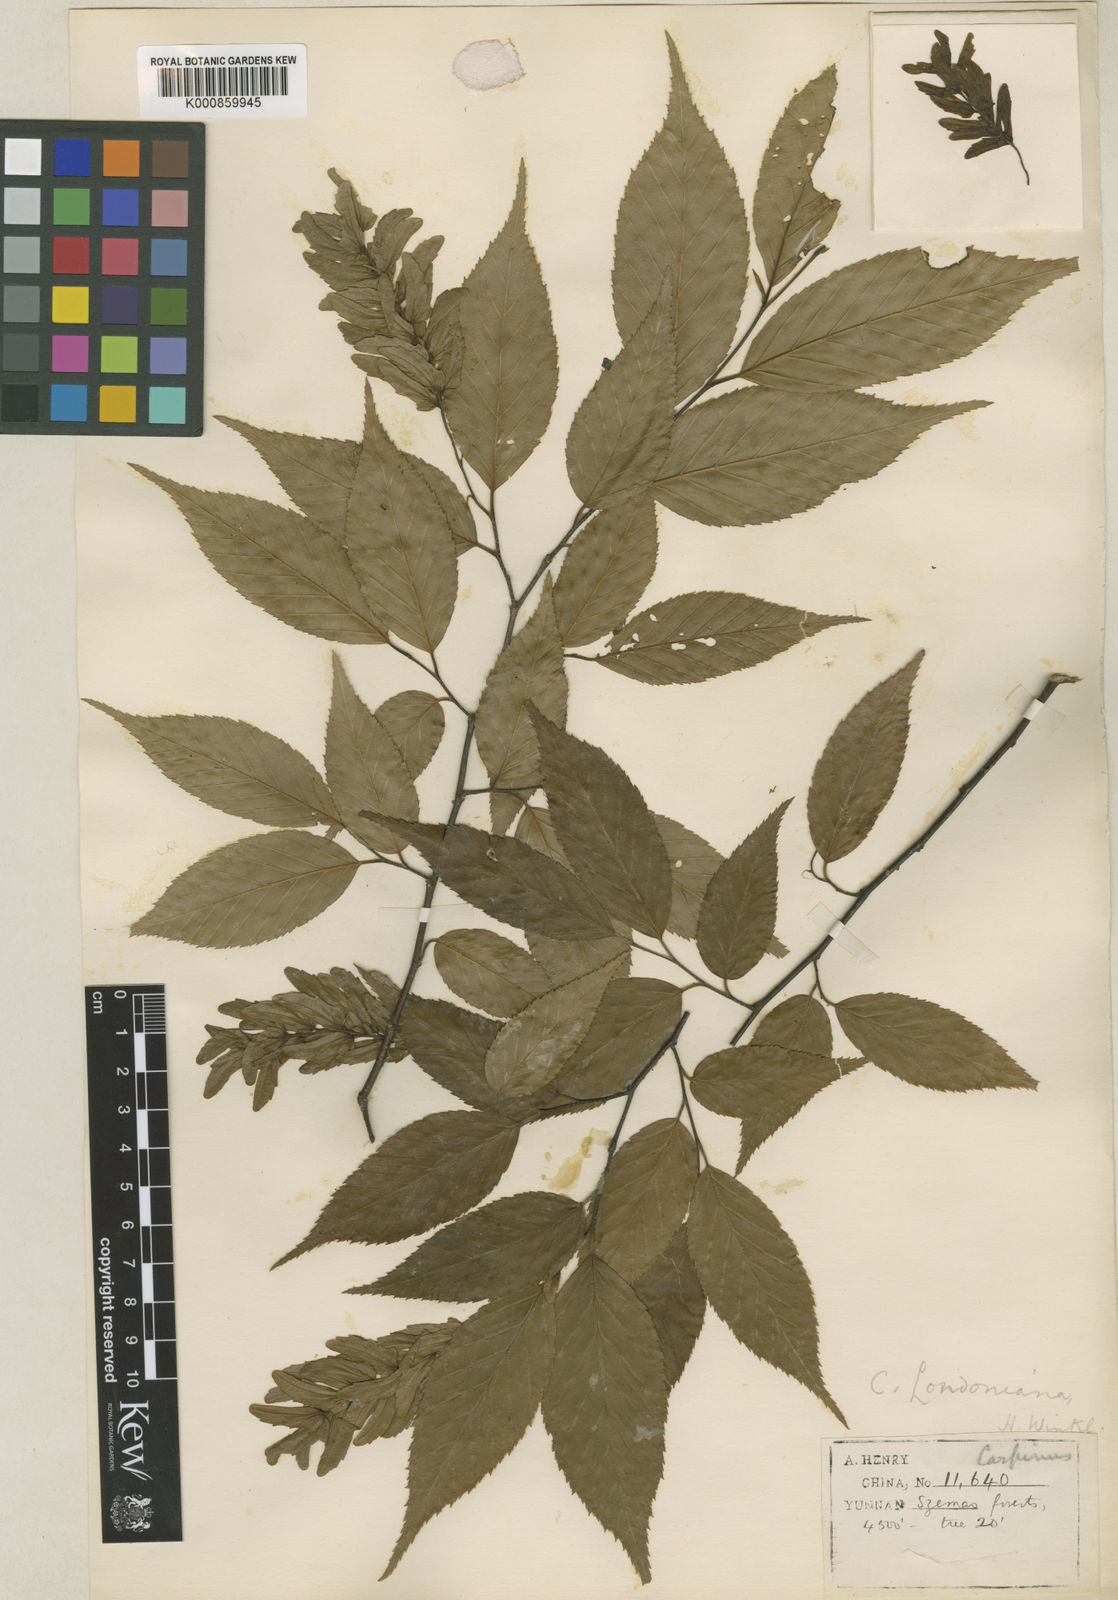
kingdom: Plantae
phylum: Tracheophyta
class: Magnoliopsida
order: Fagales
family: Betulaceae
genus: Carpinus
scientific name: Carpinus londoniana
